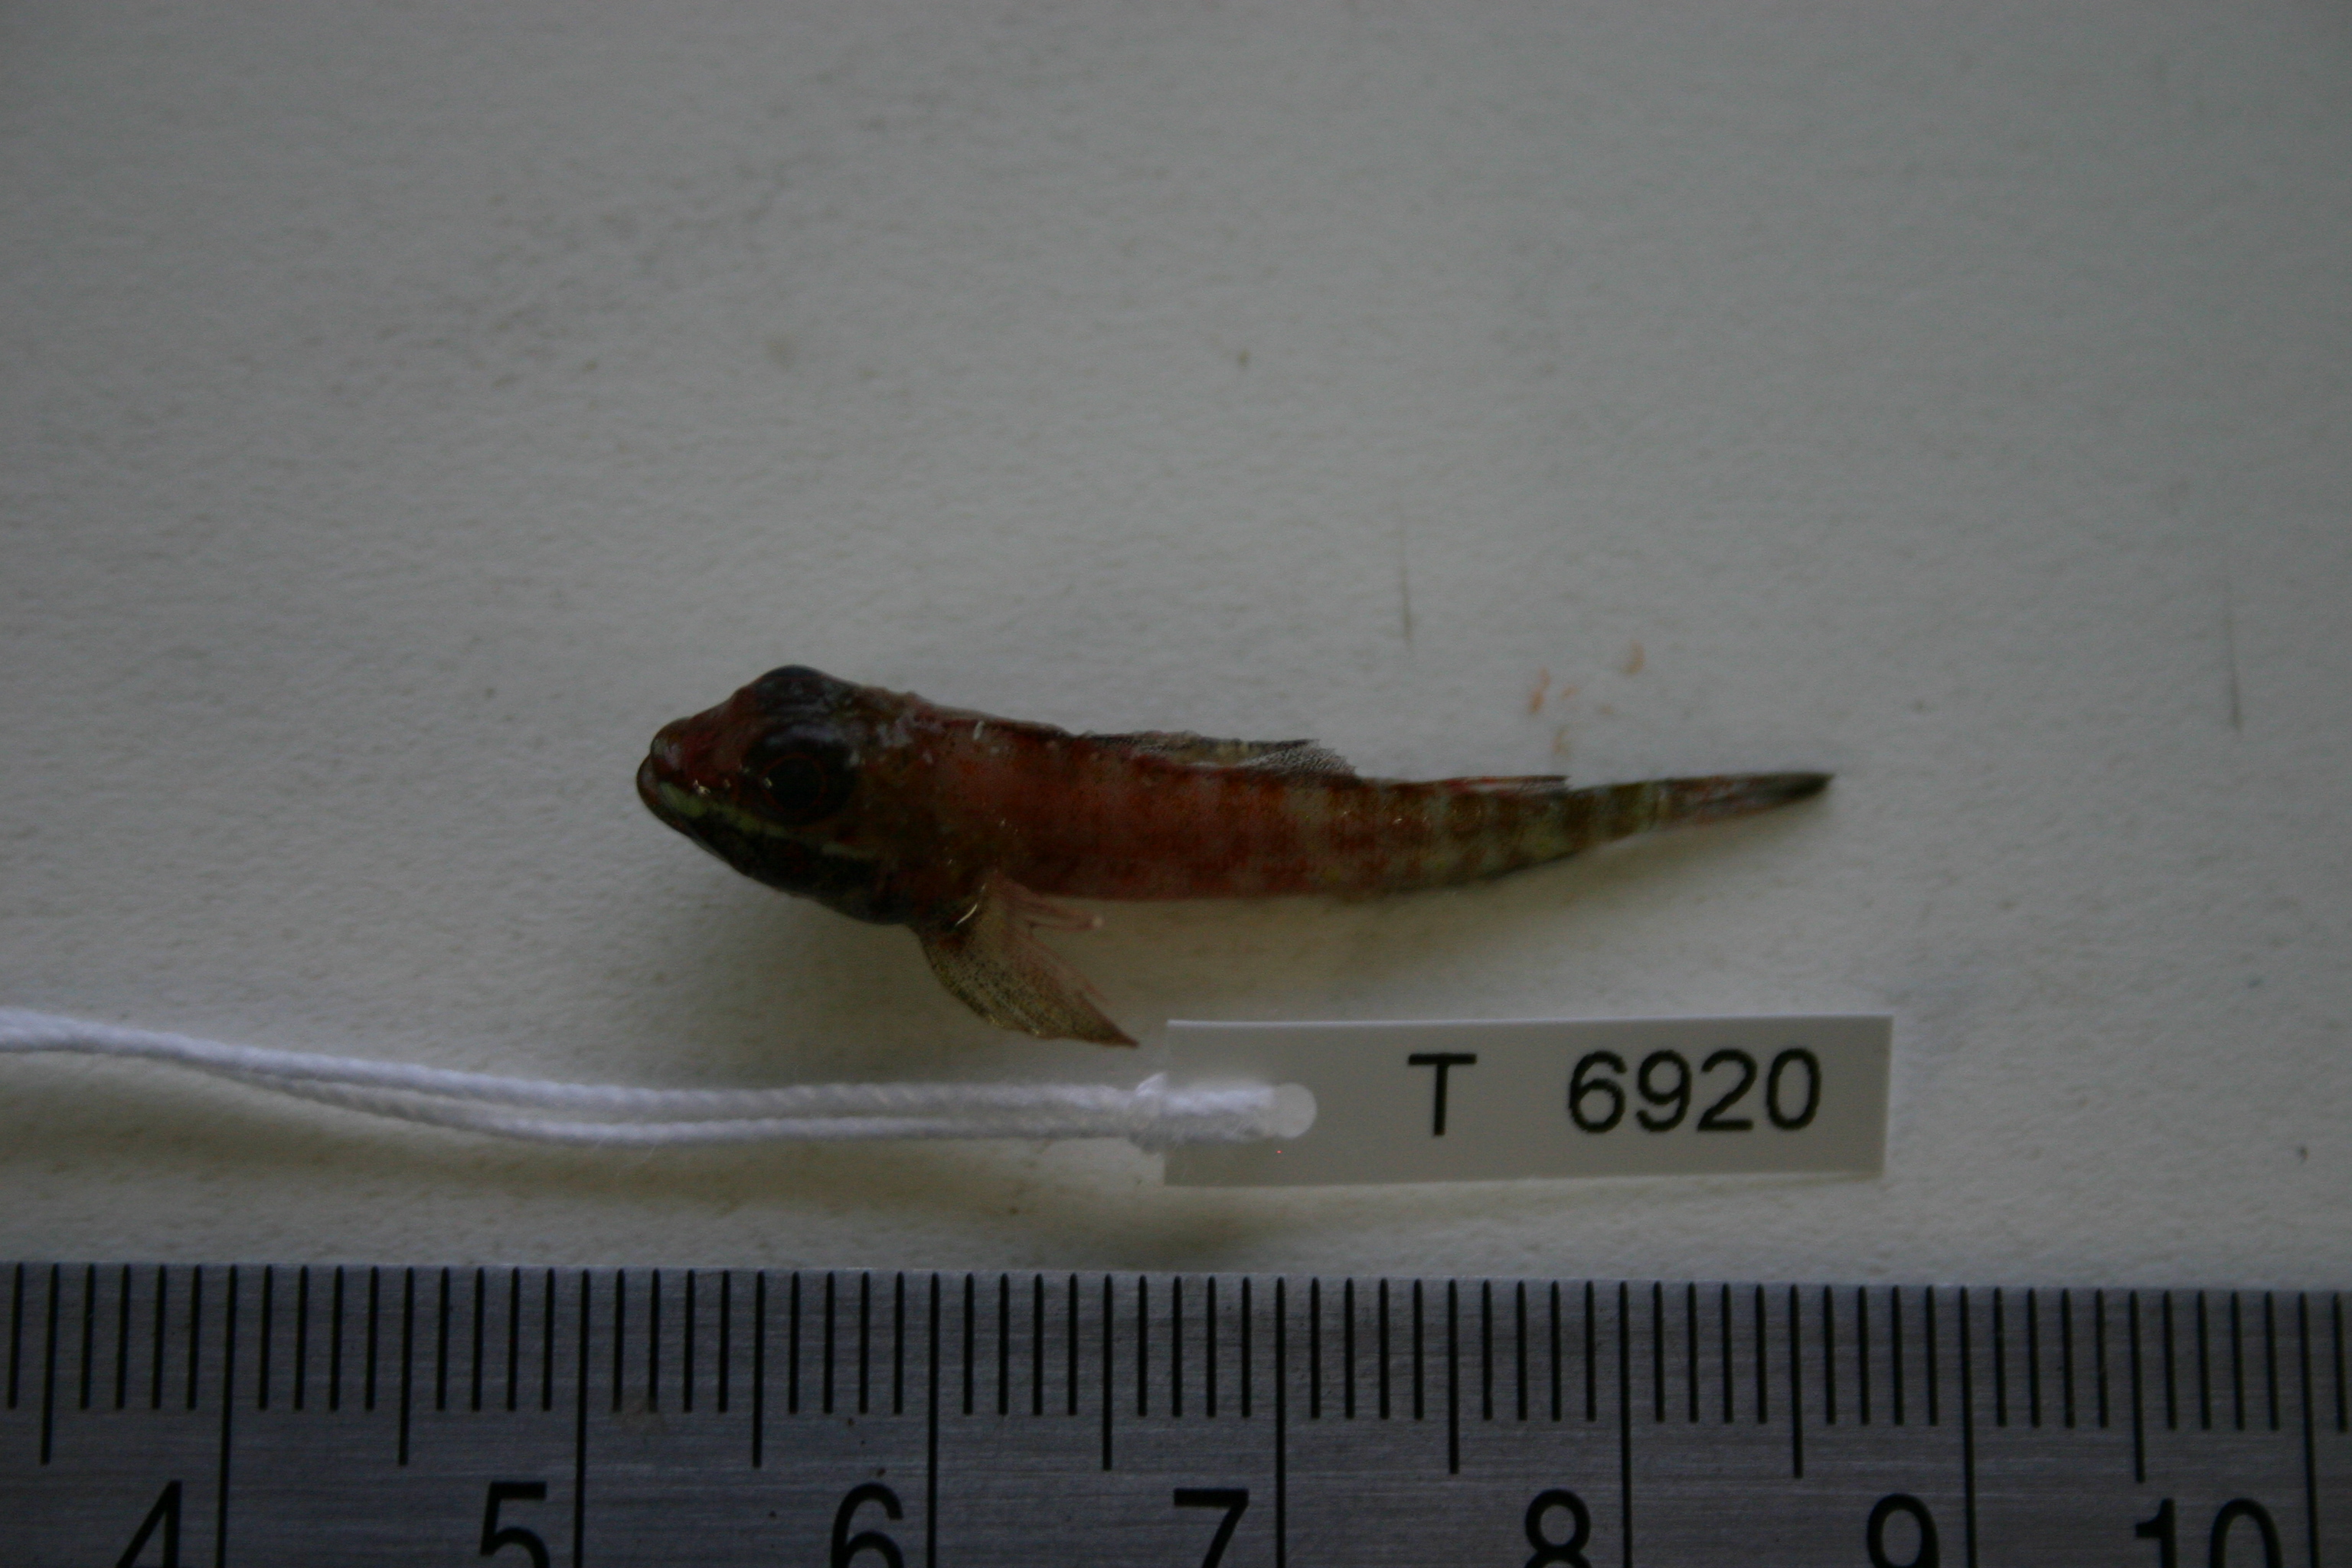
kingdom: Animalia
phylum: Chordata
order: Perciformes
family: Tripterygiidae
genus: Helcogramma
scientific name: Helcogramma fuscopinna
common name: Blackfin triplefin
